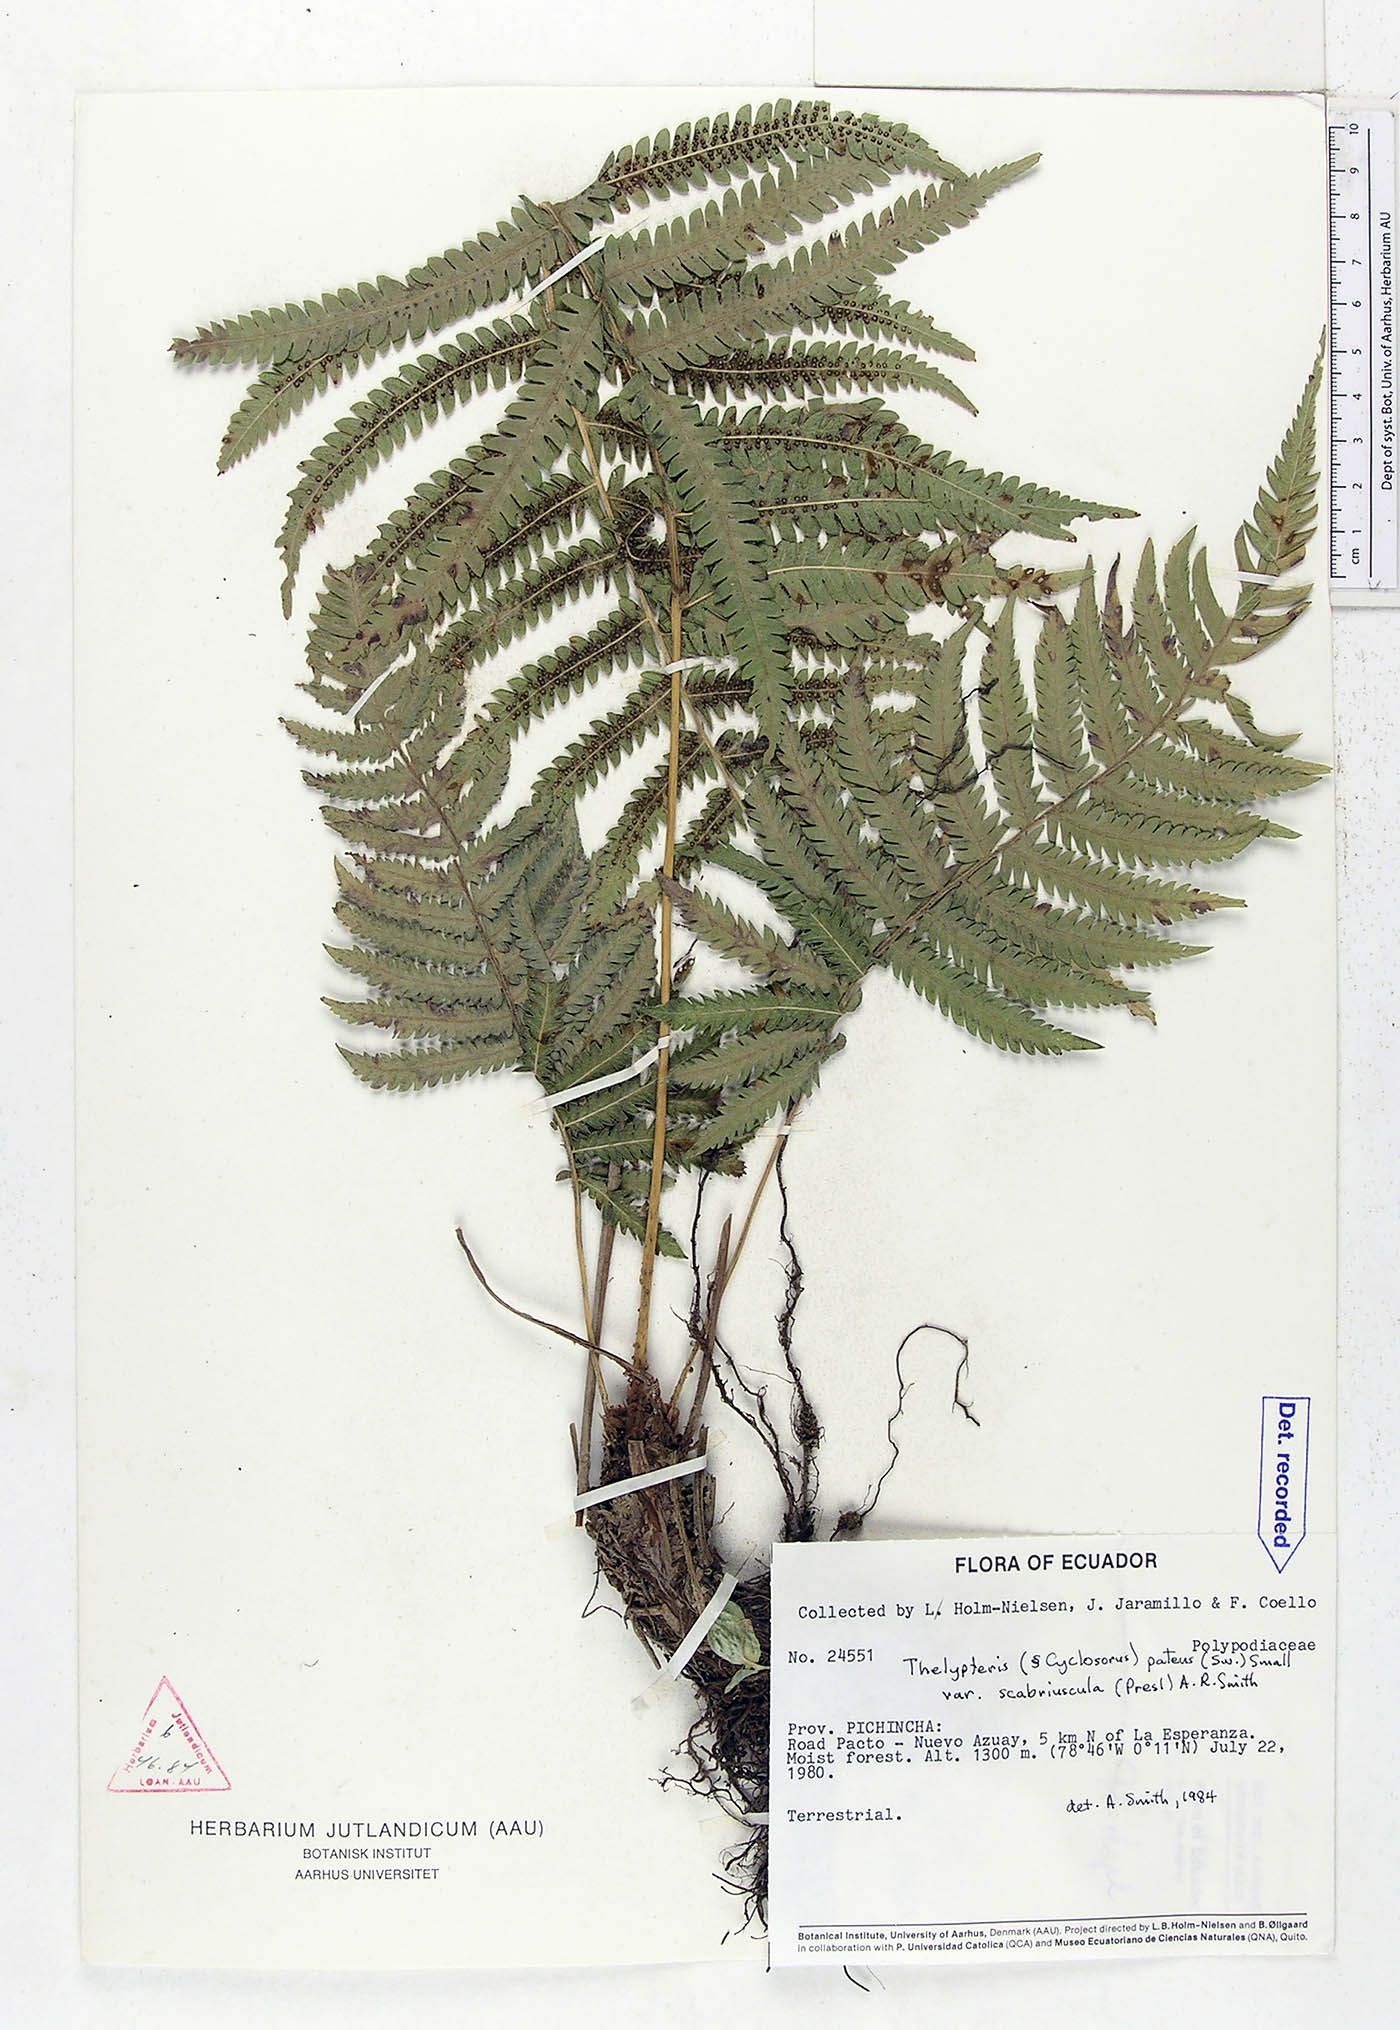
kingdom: Plantae
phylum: Tracheophyta
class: Polypodiopsida
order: Polypodiales
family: Thelypteridaceae
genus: Pelazoneuron
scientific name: Pelazoneuron patens
